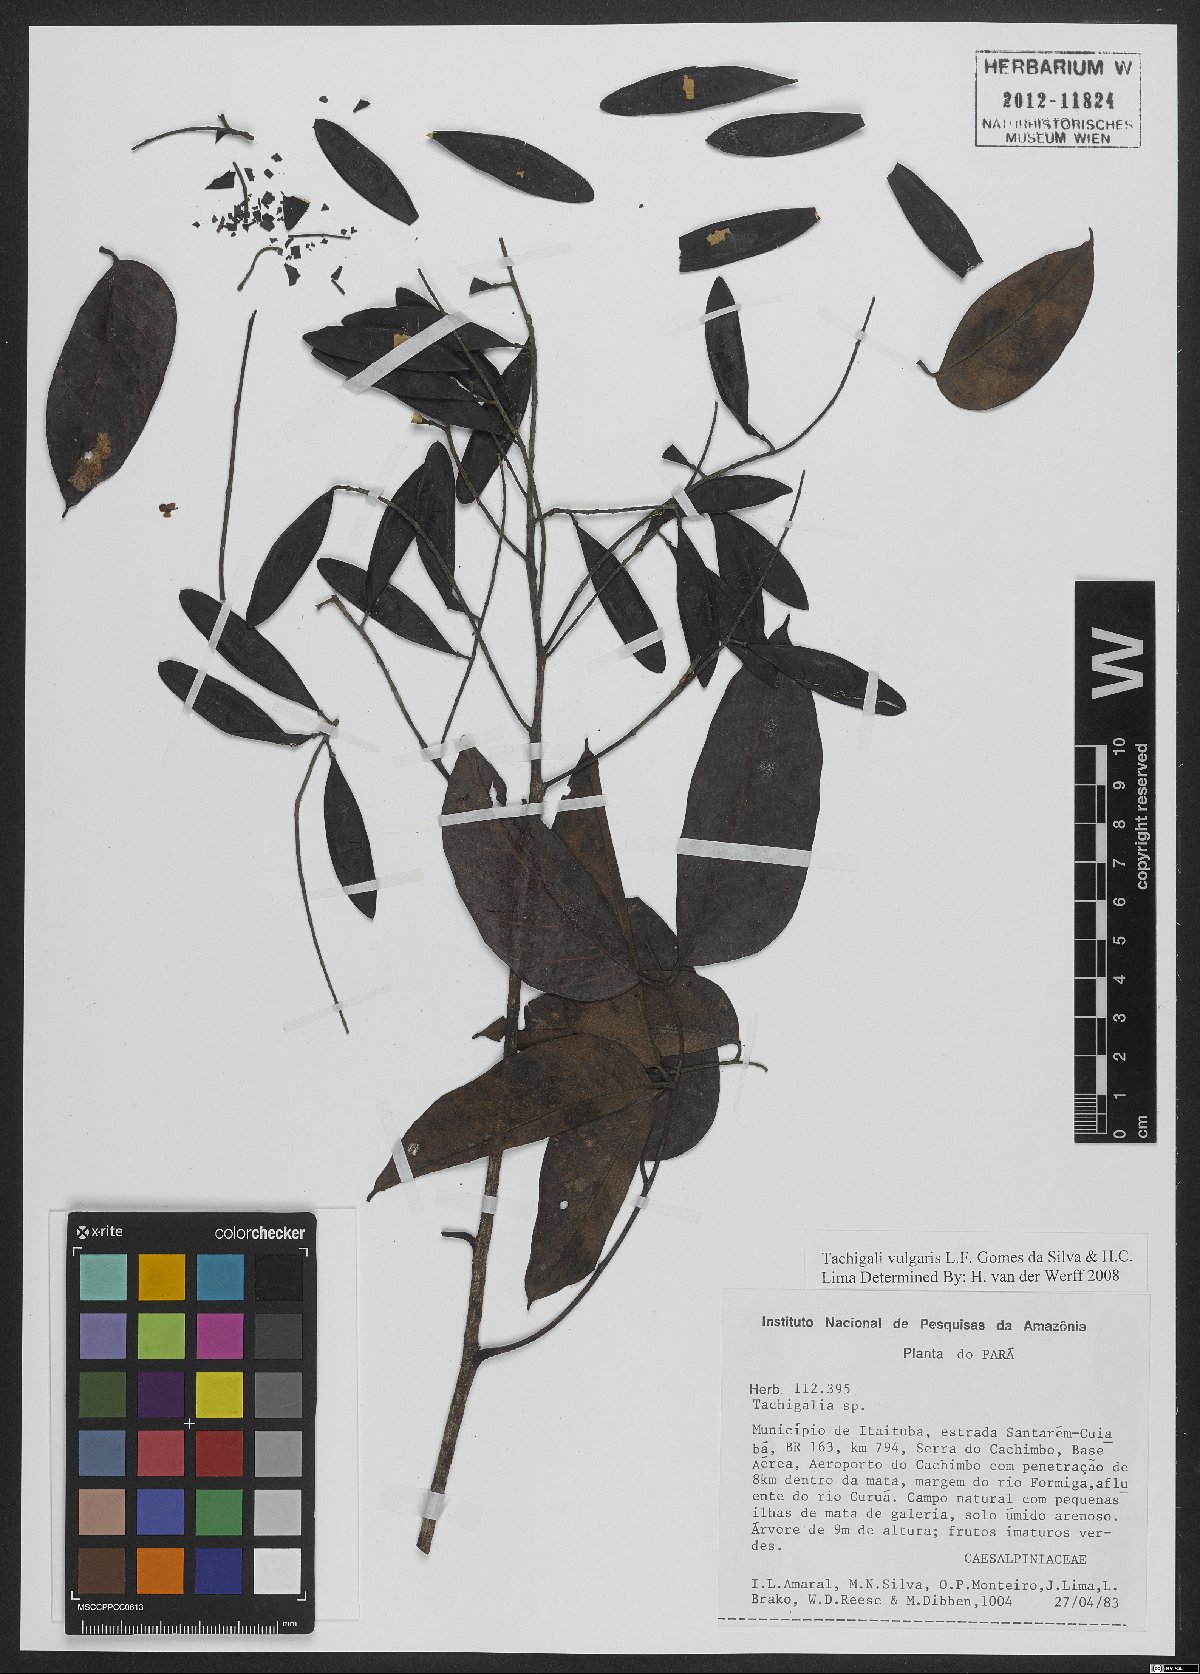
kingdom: Plantae
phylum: Tracheophyta
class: Magnoliopsida
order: Fabales
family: Fabaceae
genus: Tachigali
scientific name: Tachigali vulgaris
